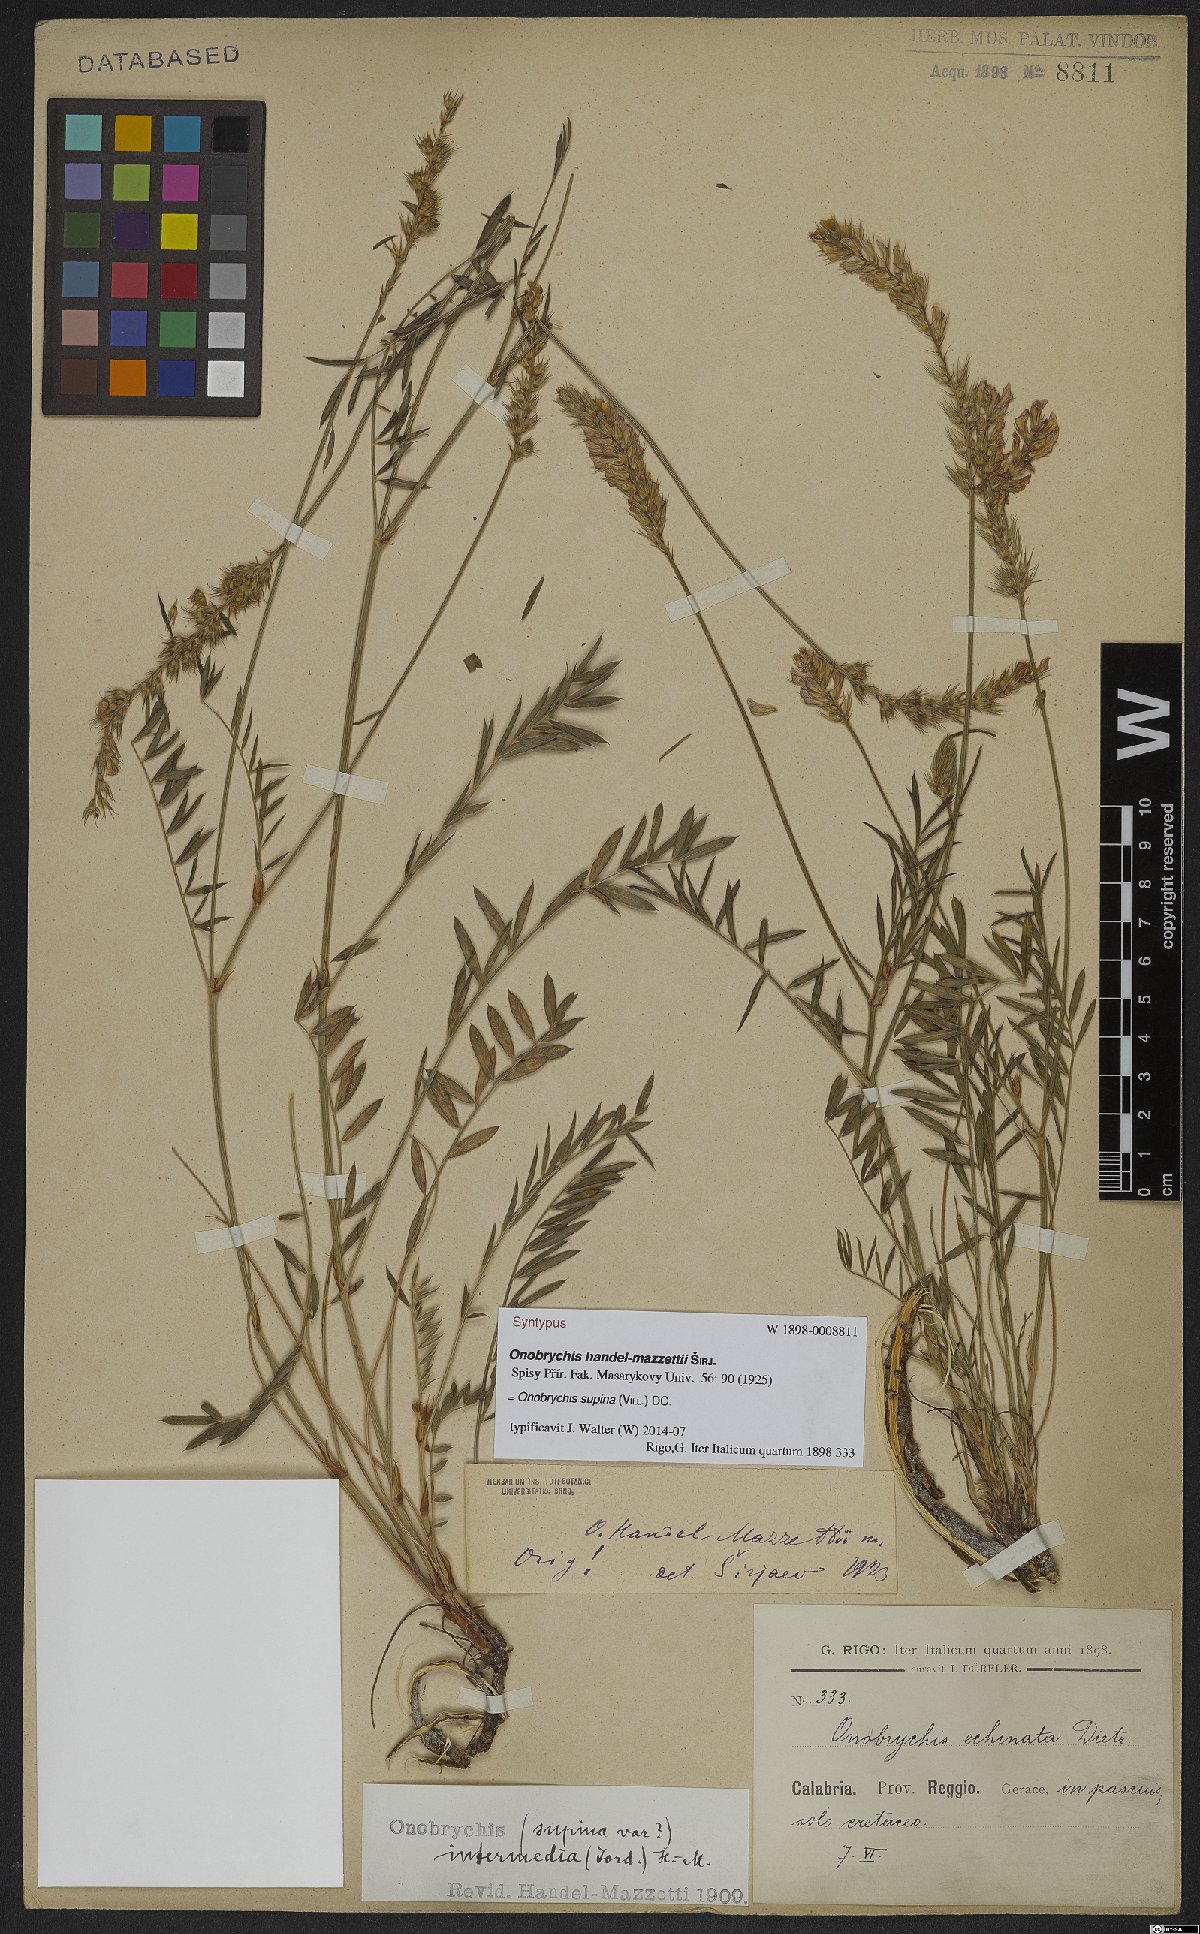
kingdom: Plantae
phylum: Tracheophyta
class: Magnoliopsida
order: Fabales
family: Fabaceae
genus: Onobrychis
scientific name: Onobrychis supina
